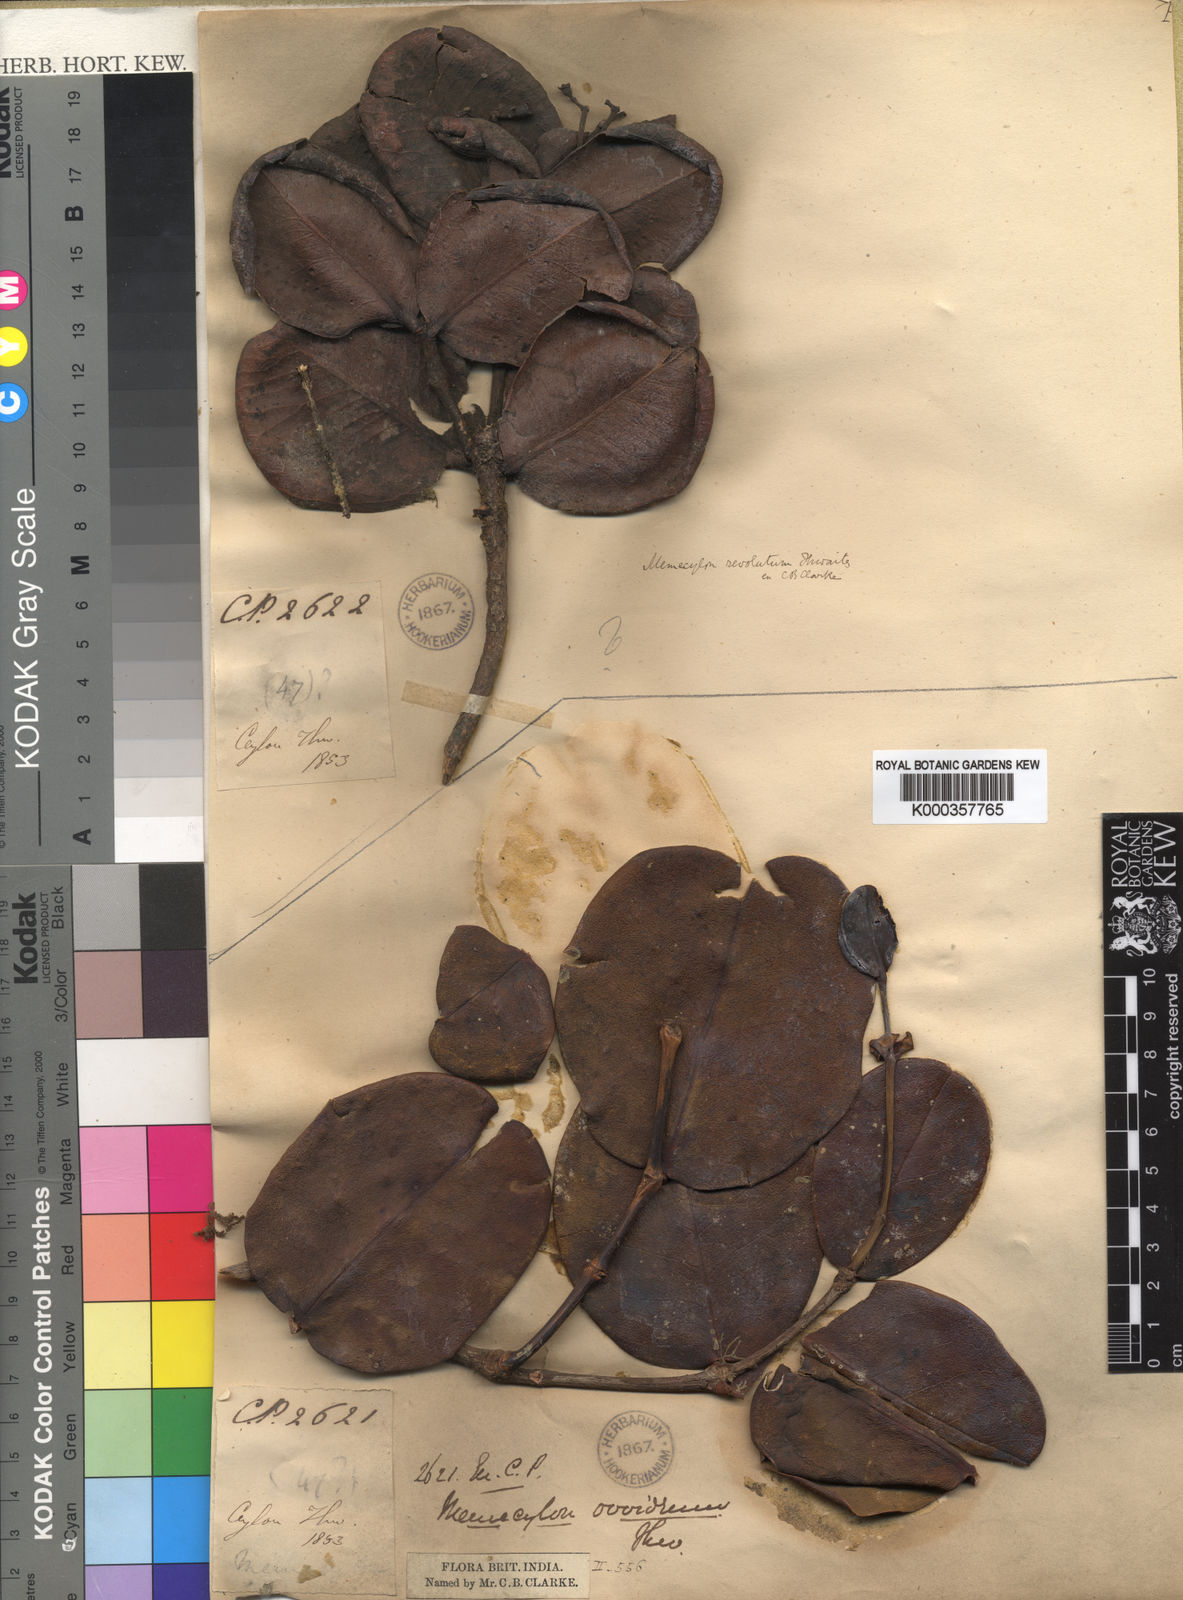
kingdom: Plantae
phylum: Tracheophyta
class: Magnoliopsida
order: Myrtales
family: Melastomataceae
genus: Memecylon
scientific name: Memecylon ovoideum
